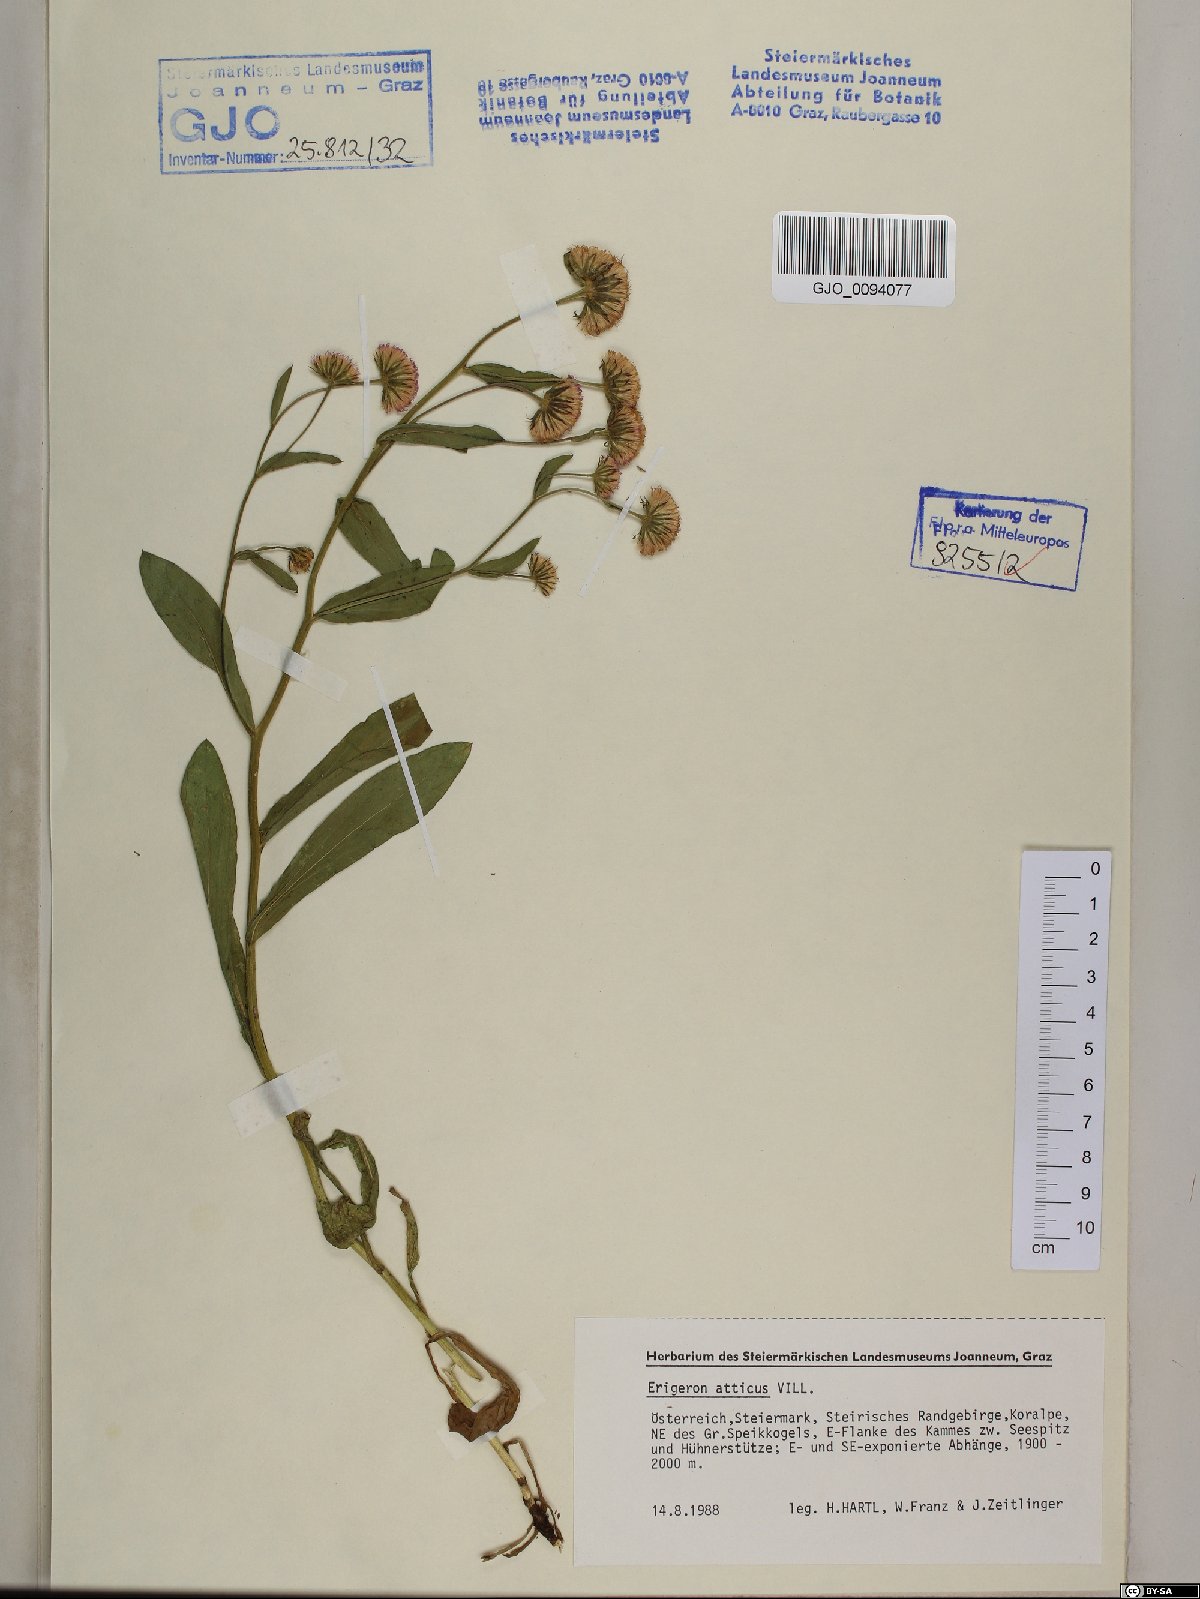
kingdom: Plantae
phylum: Tracheophyta
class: Magnoliopsida
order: Asterales
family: Asteraceae
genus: Erigeron
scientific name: Erigeron atticus
